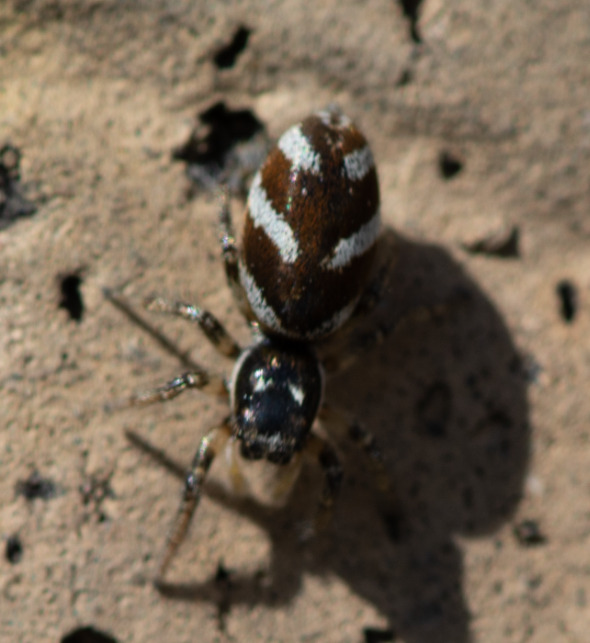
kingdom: Animalia
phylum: Arthropoda
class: Arachnida
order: Araneae
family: Salticidae
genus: Salticus
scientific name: Salticus scenicus
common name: Almindelig zebraedderkop
